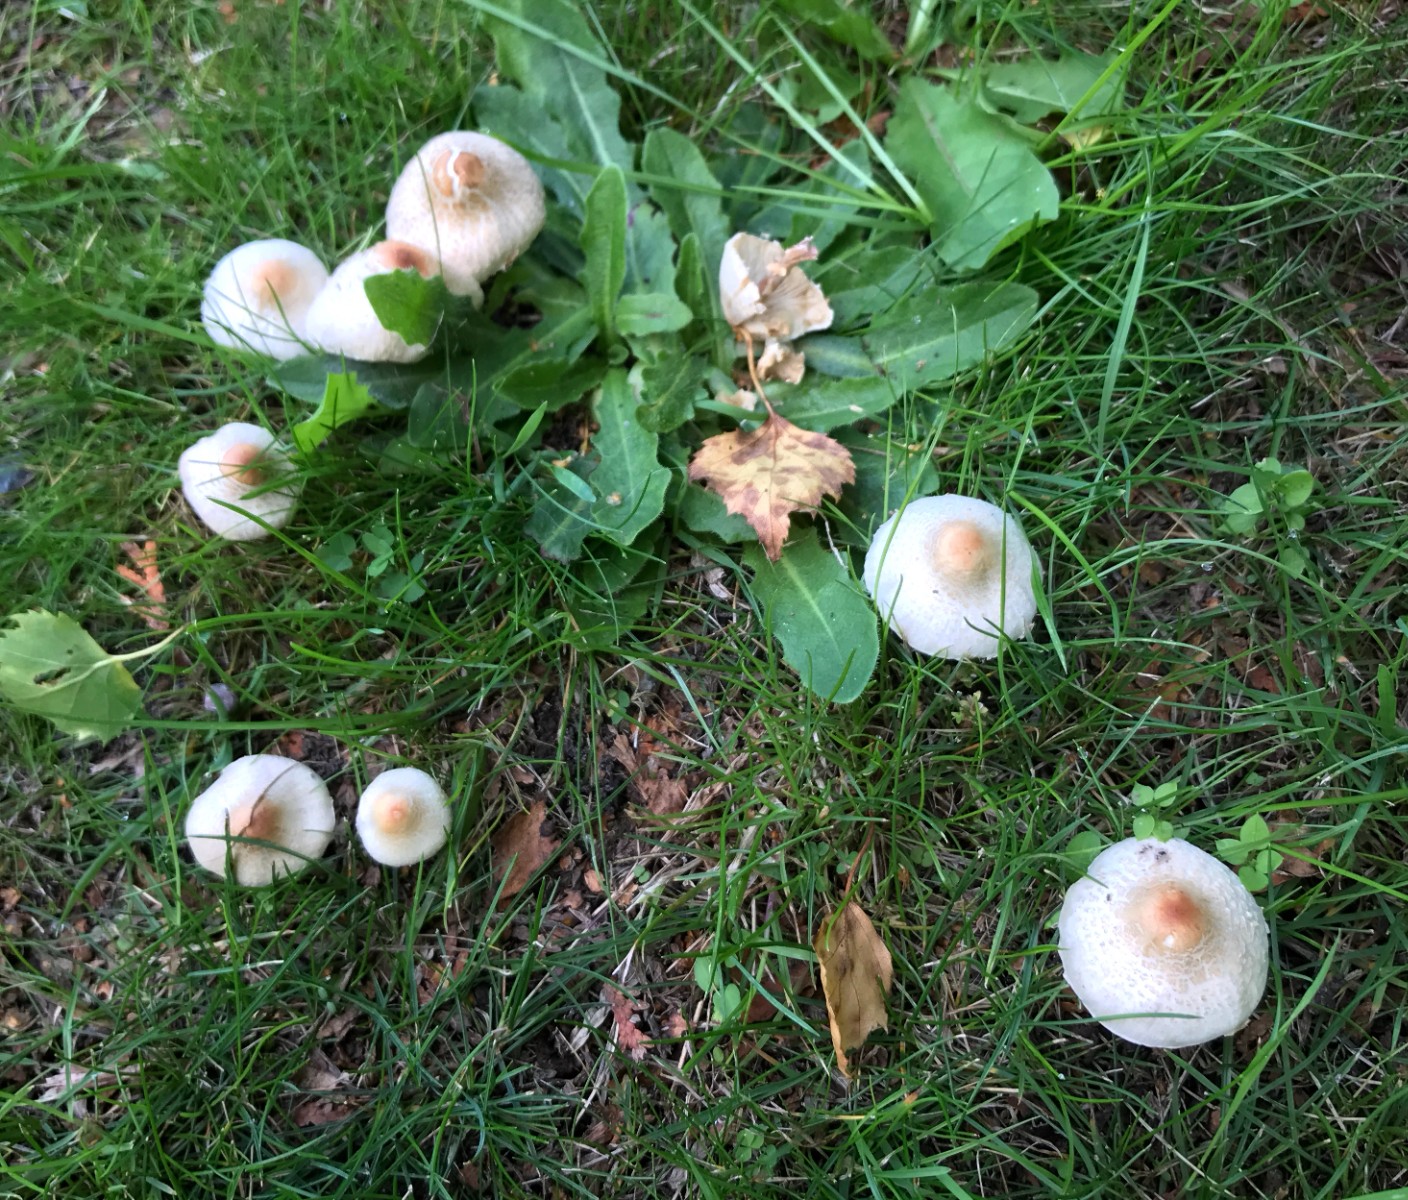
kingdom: Fungi
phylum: Basidiomycota
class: Agaricomycetes
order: Agaricales
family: Agaricaceae
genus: Lepiota
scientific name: Lepiota cristata
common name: stinkende parasolhat
